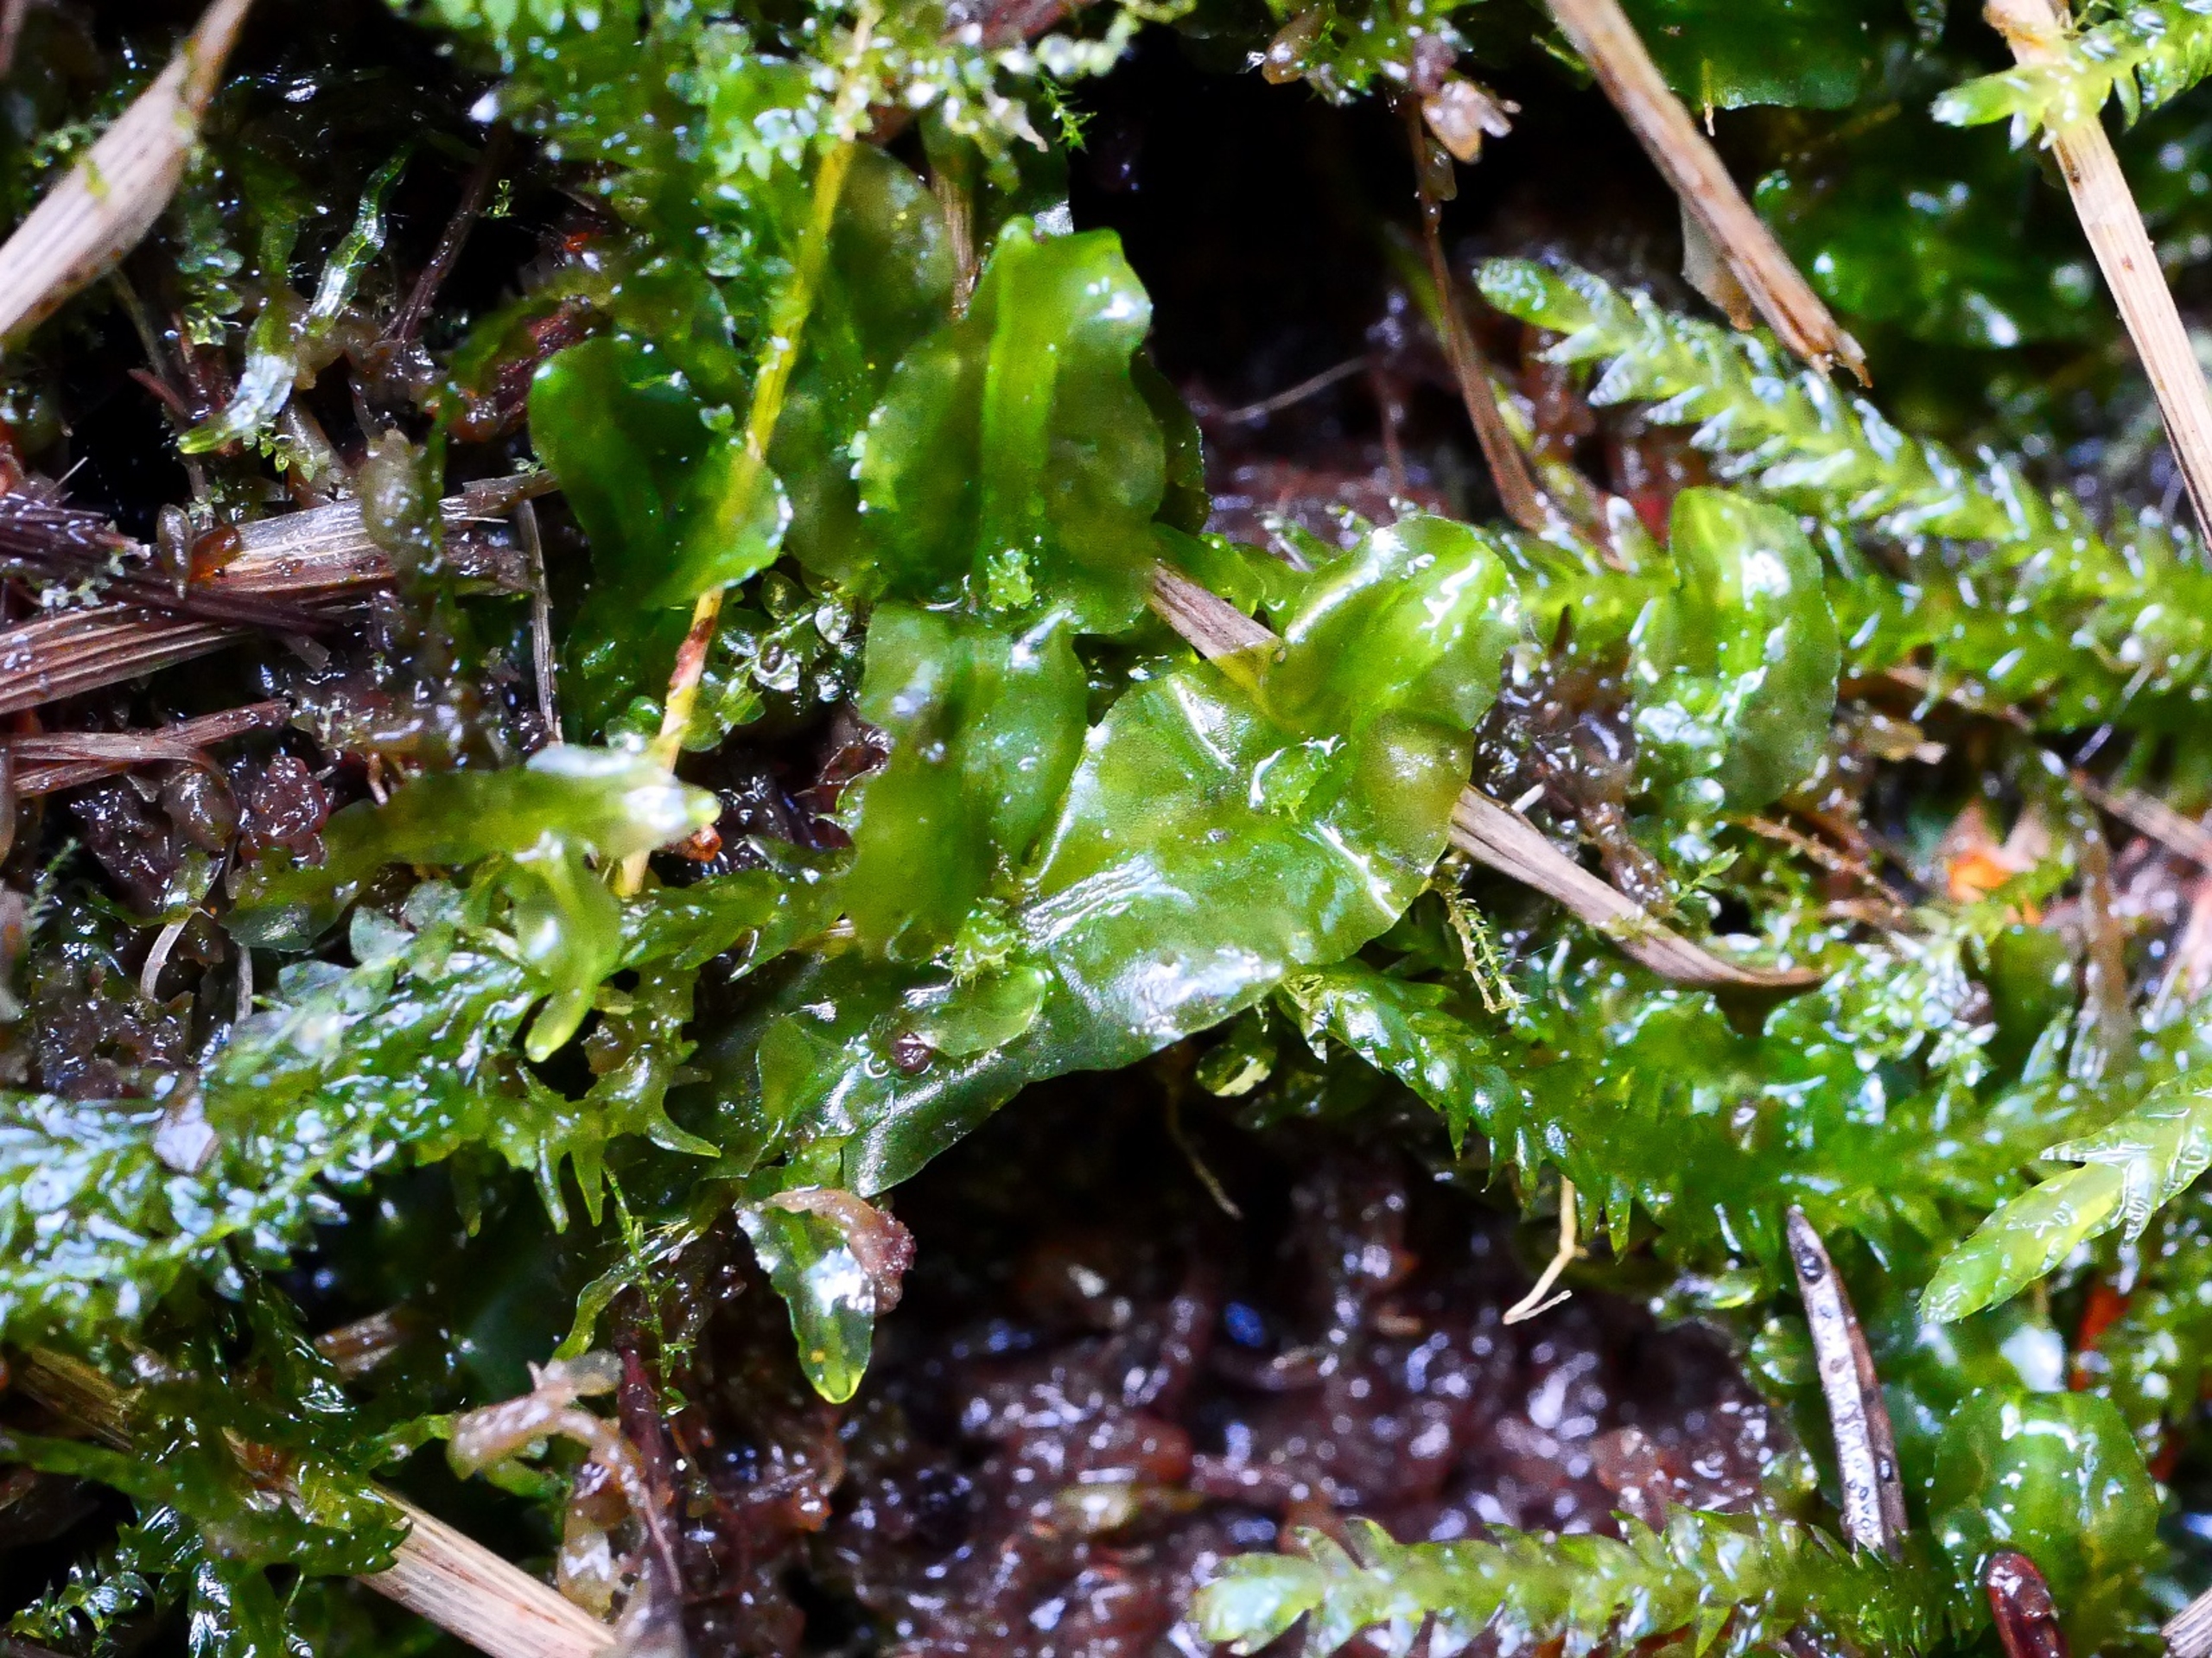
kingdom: Plantae
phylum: Marchantiophyta
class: Jungermanniopsida
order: Pallaviciniales
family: Pallaviciniaceae
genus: Pallavicinia
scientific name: Pallavicinia lyellii
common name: Almindelig strengløv
